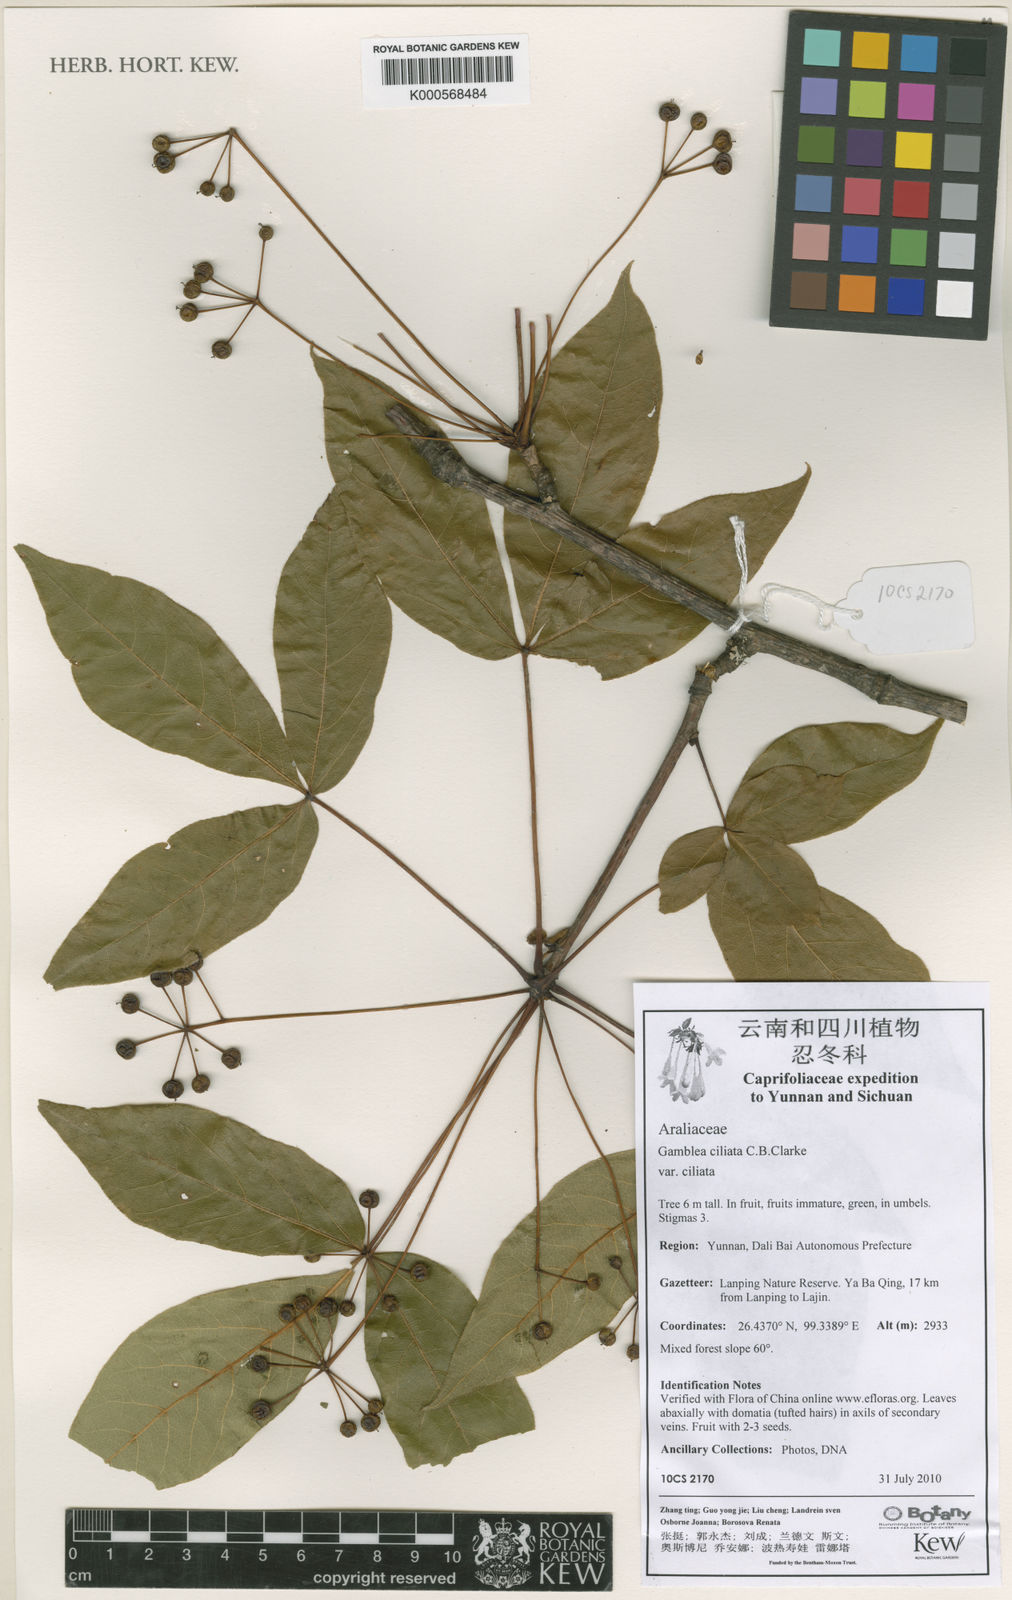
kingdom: Plantae
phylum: Tracheophyta
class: Magnoliopsida
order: Apiales
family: Araliaceae
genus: Gamblea
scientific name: Gamblea ciliata
